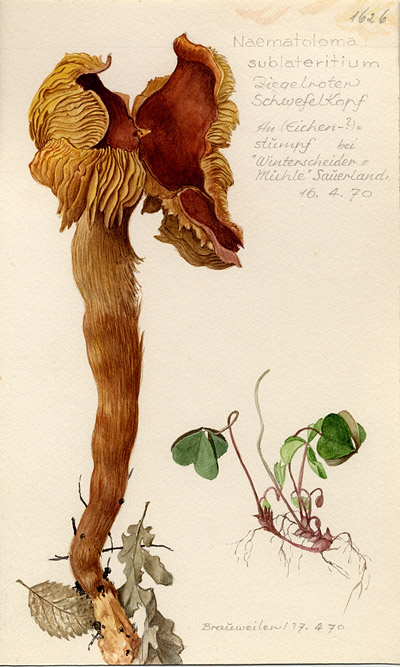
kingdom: Fungi
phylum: Basidiomycota
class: Agaricomycetes
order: Agaricales
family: Strophariaceae
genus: Hypholoma
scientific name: Hypholoma lateritium
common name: Brick caps
